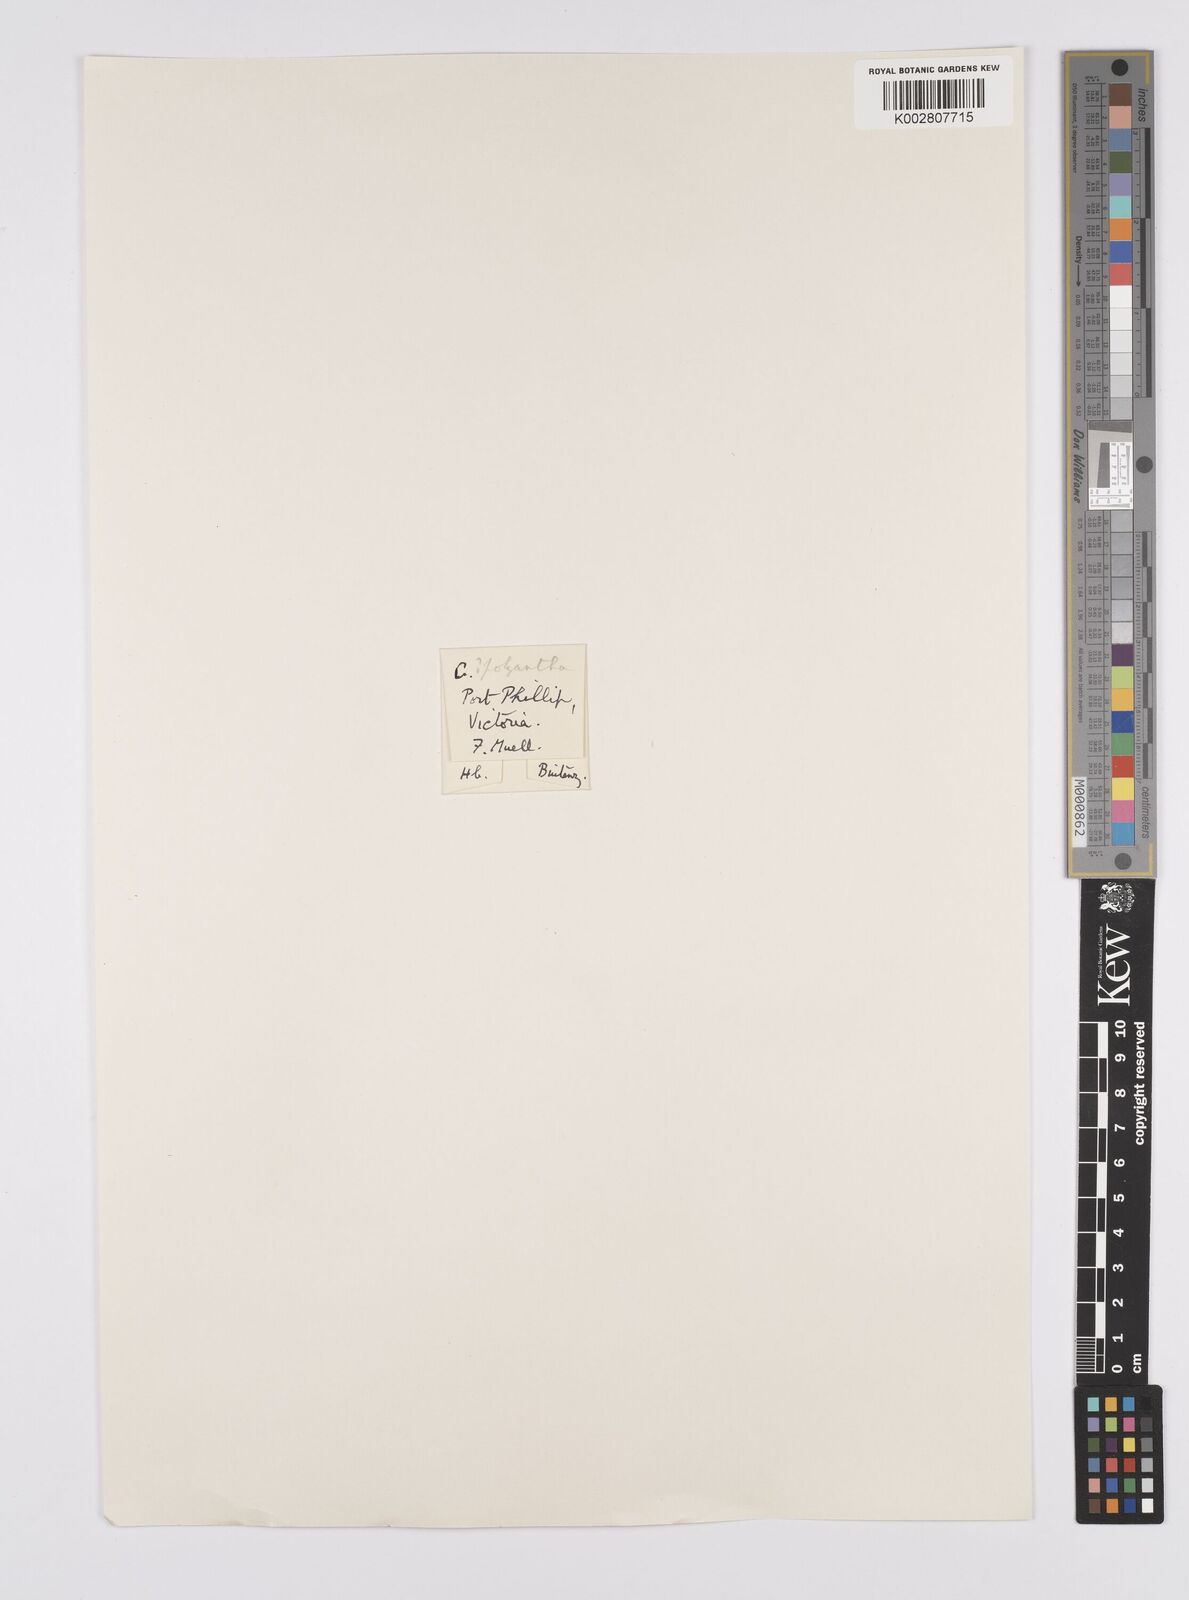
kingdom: Plantae
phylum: Tracheophyta
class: Liliopsida
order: Poales
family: Cyperaceae
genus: Carex
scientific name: Carex polyantha
